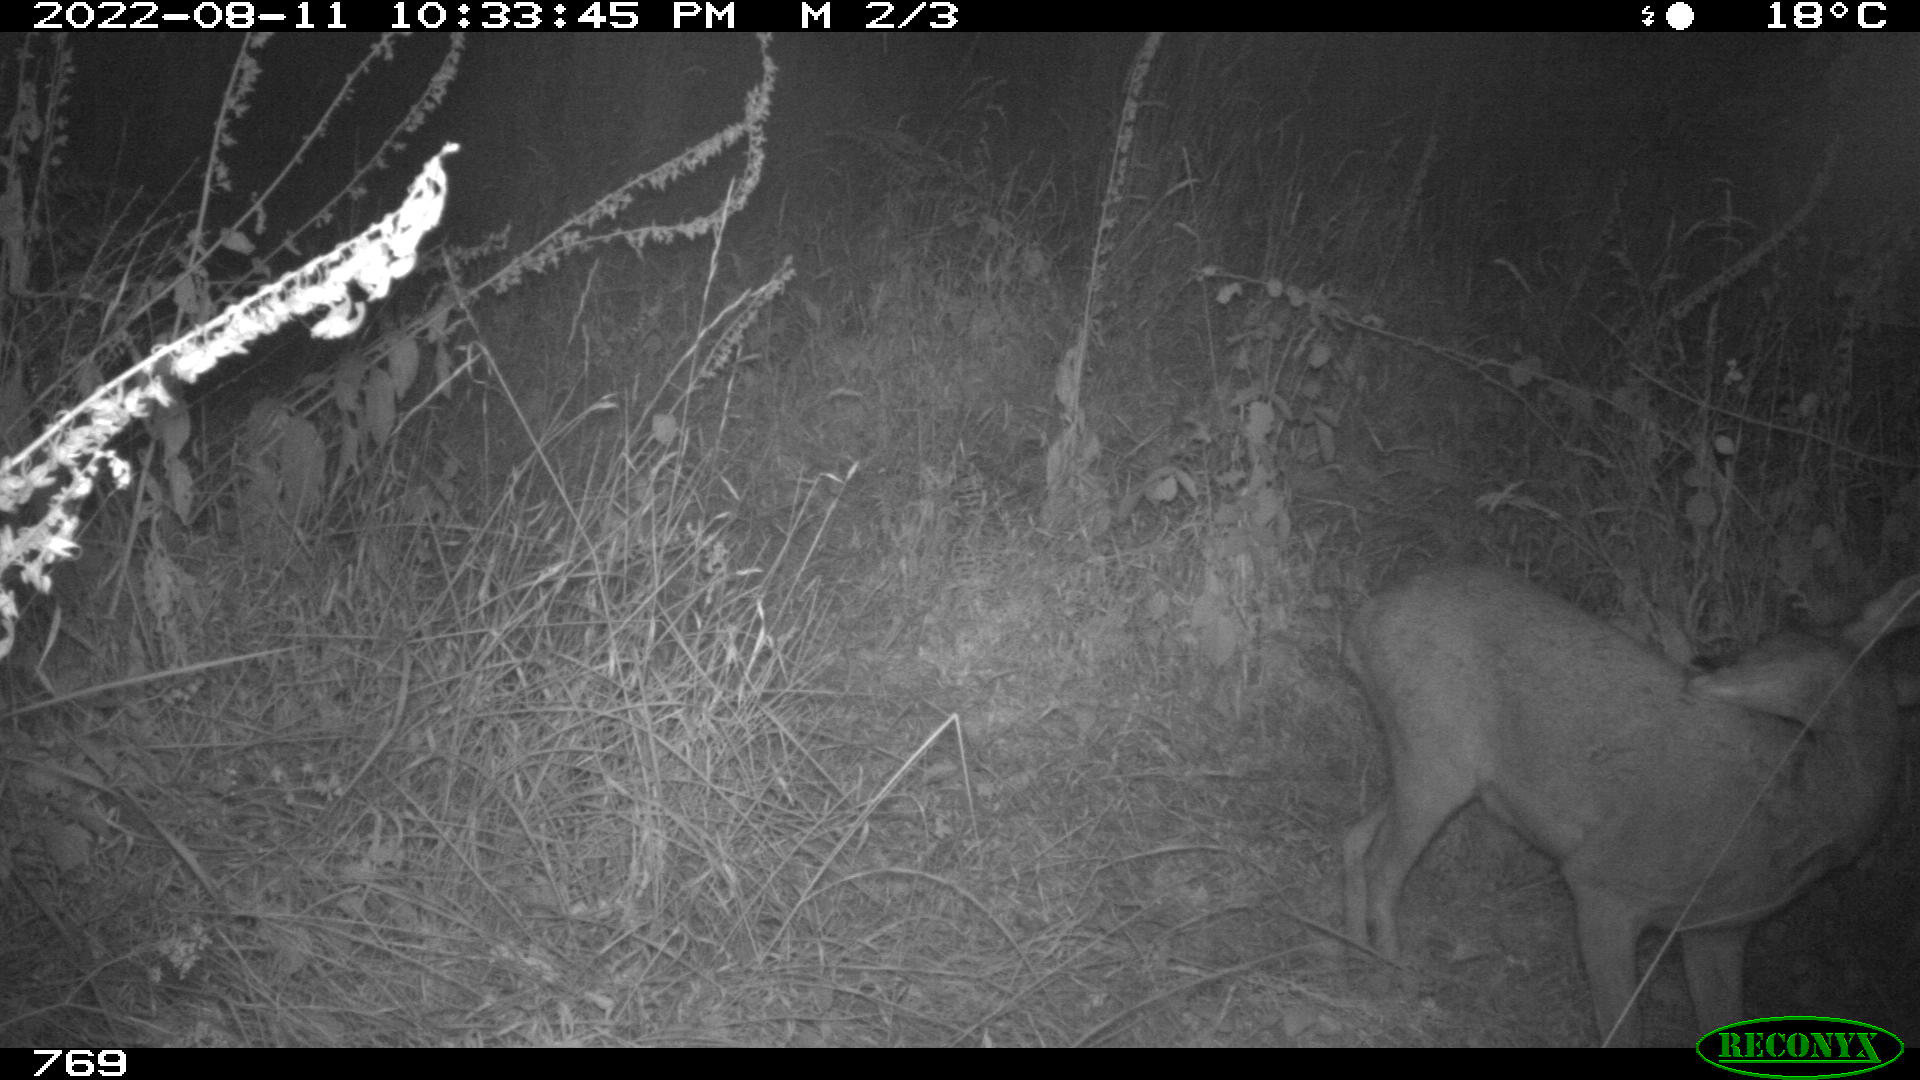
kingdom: Animalia
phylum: Chordata
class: Mammalia
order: Artiodactyla
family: Cervidae
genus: Capreolus
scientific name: Capreolus capreolus
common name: Western roe deer
